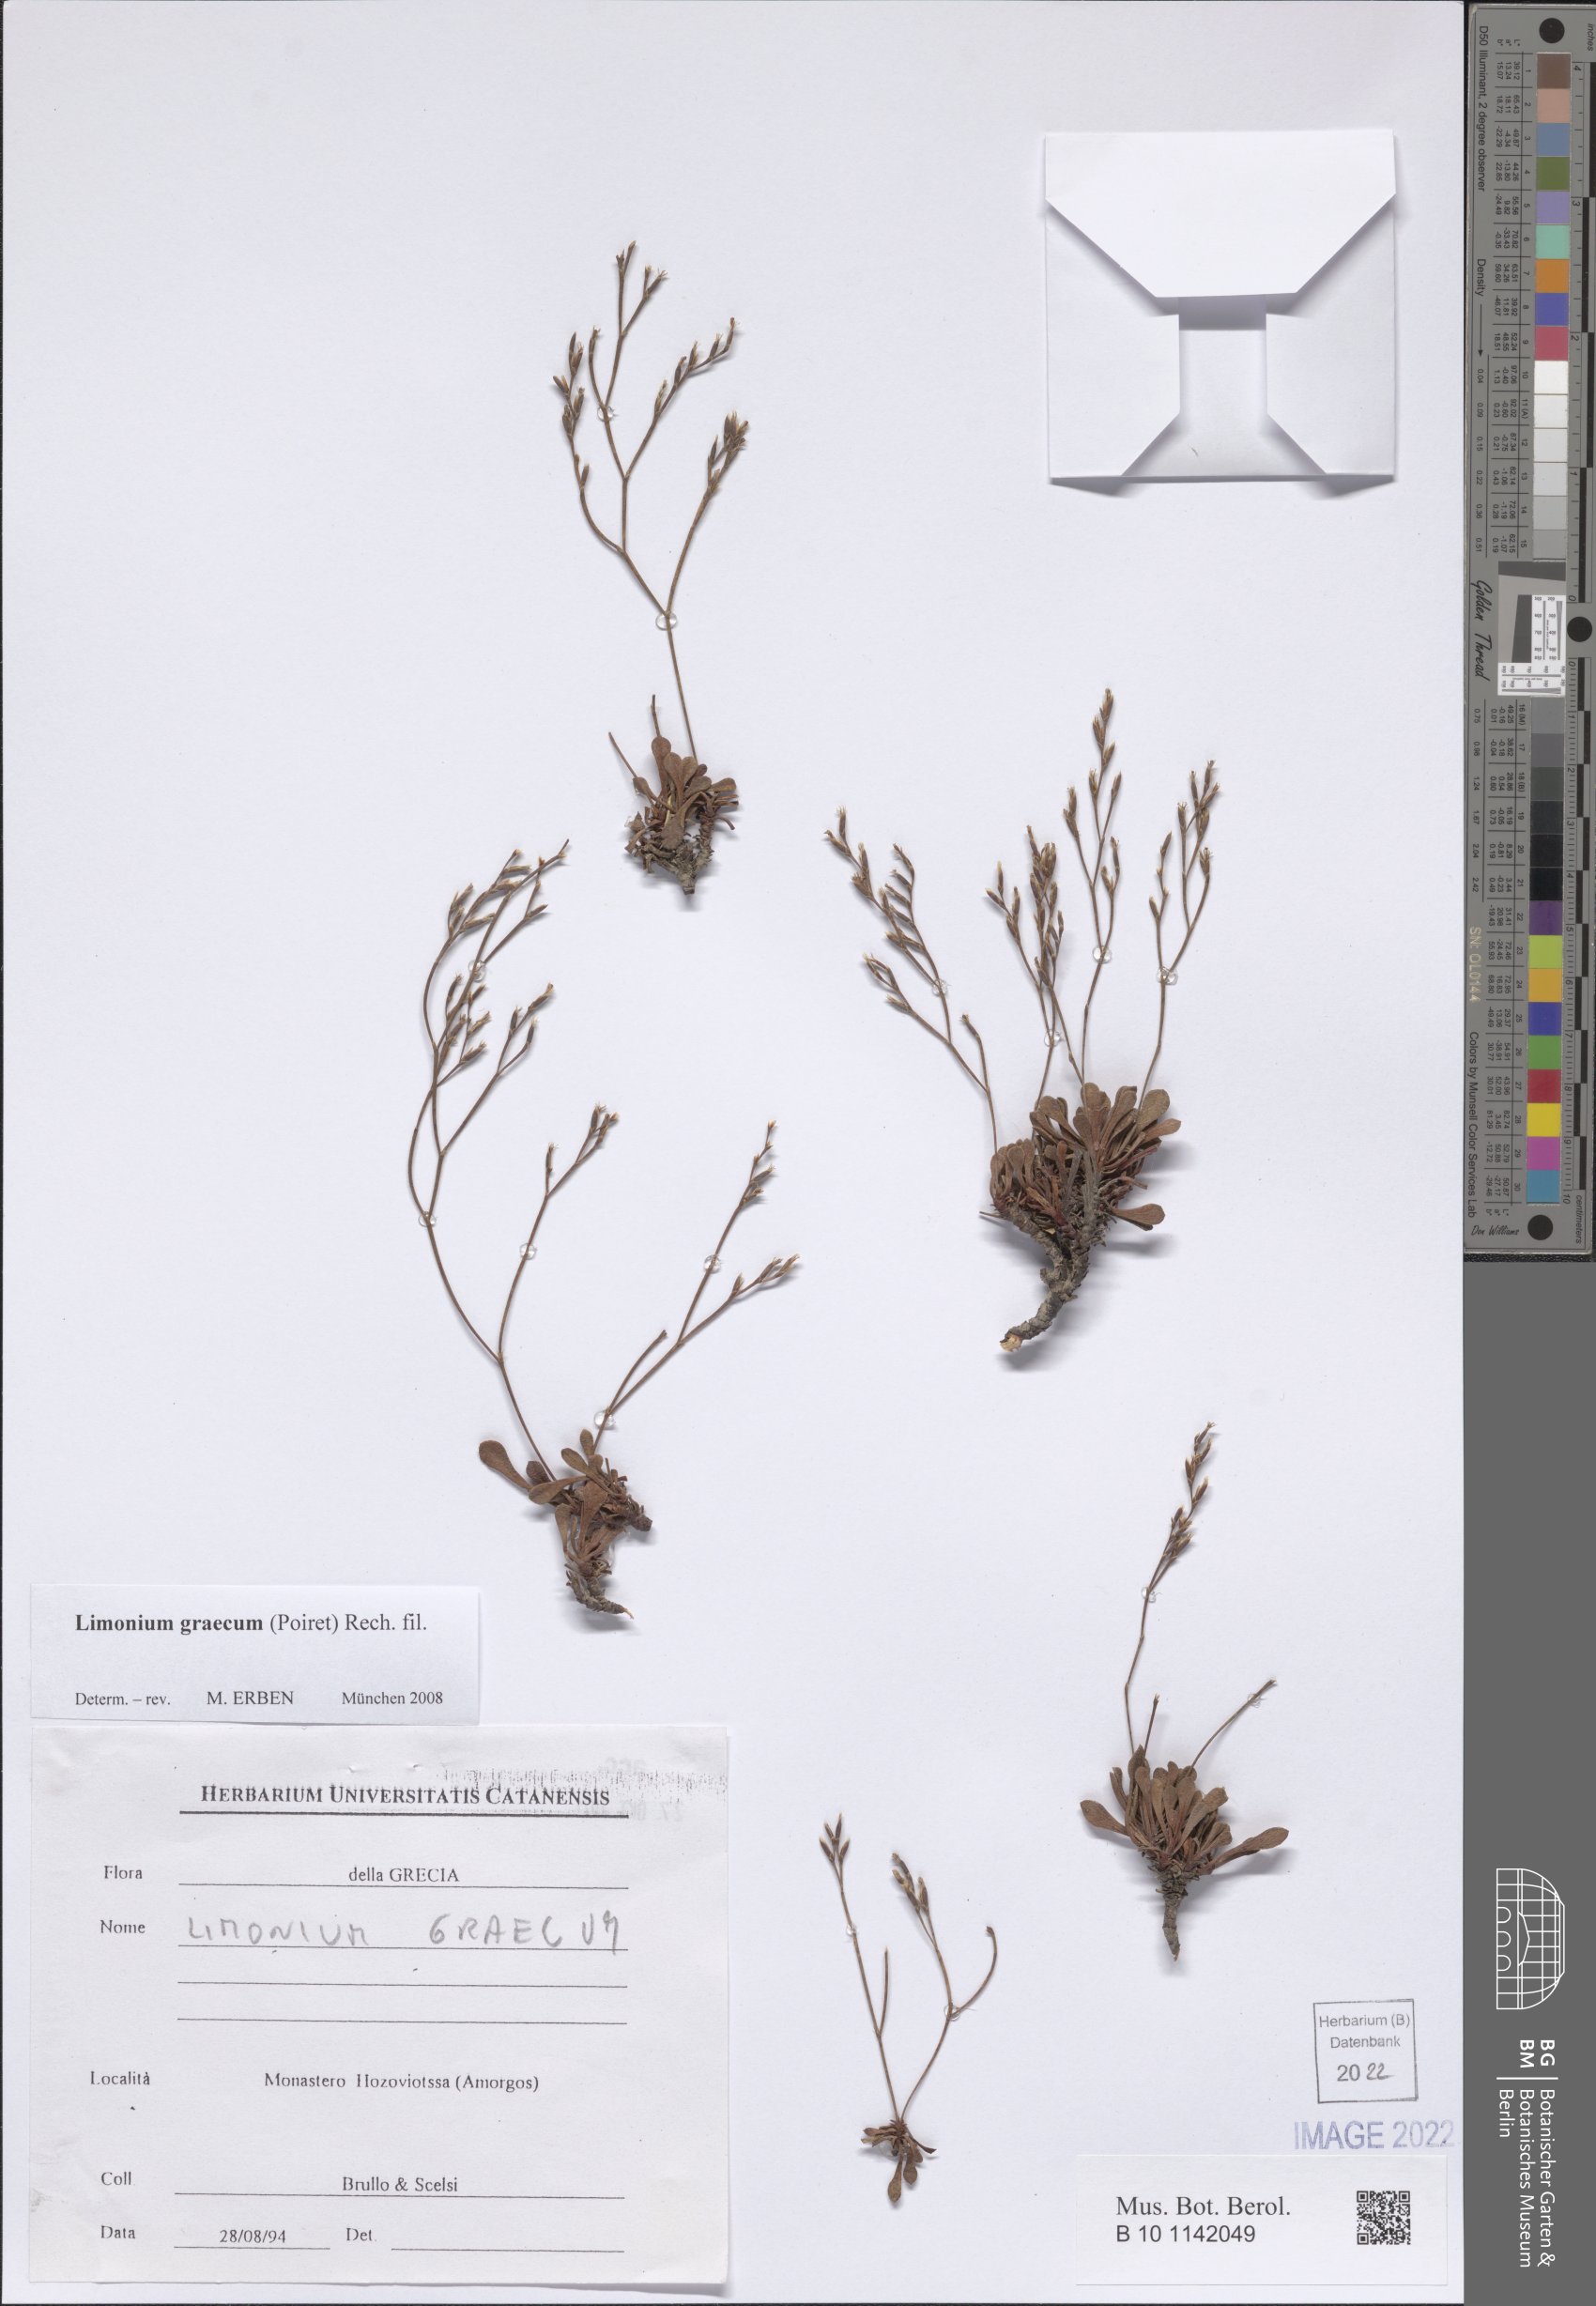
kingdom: Plantae
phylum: Tracheophyta
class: Magnoliopsida
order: Caryophyllales
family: Plumbaginaceae
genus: Limonium
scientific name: Limonium graecum
